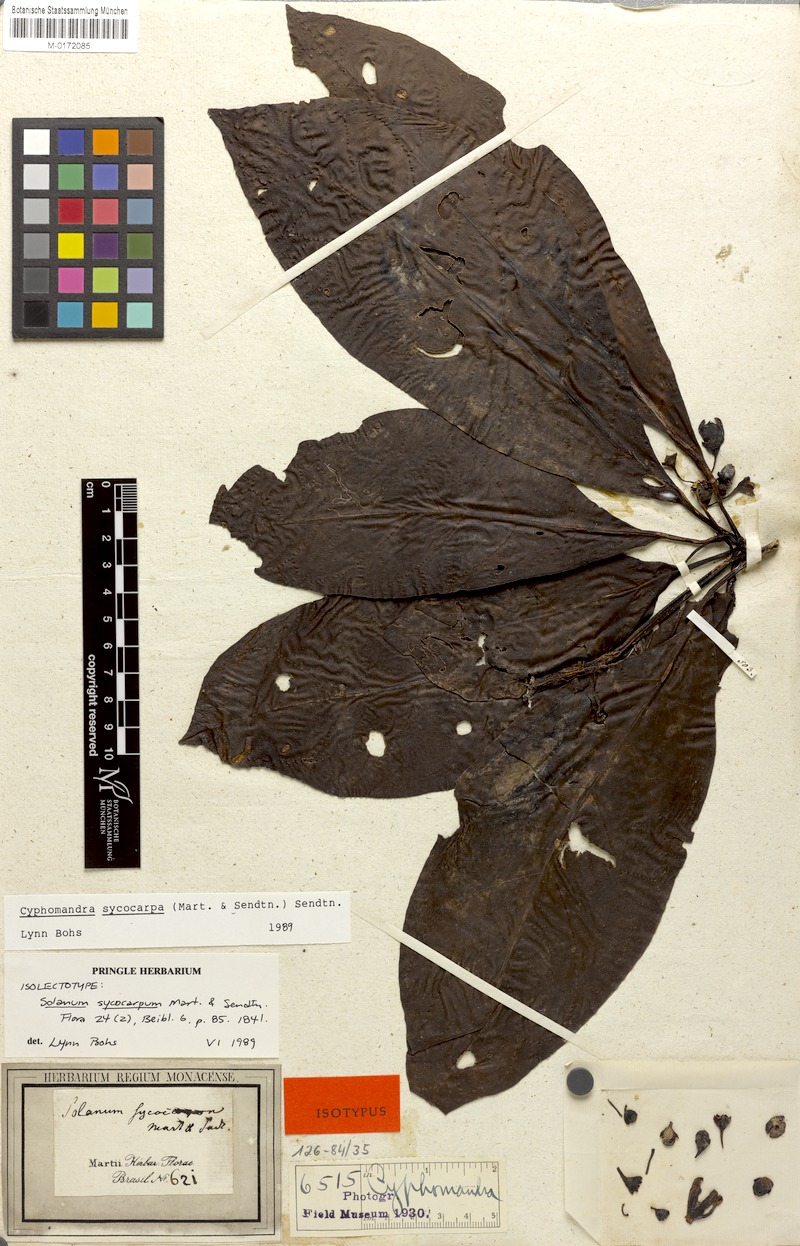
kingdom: Plantae
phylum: Tracheophyta
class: Magnoliopsida
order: Solanales
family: Solanaceae
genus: Solanum
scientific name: Solanum sycocarpum
